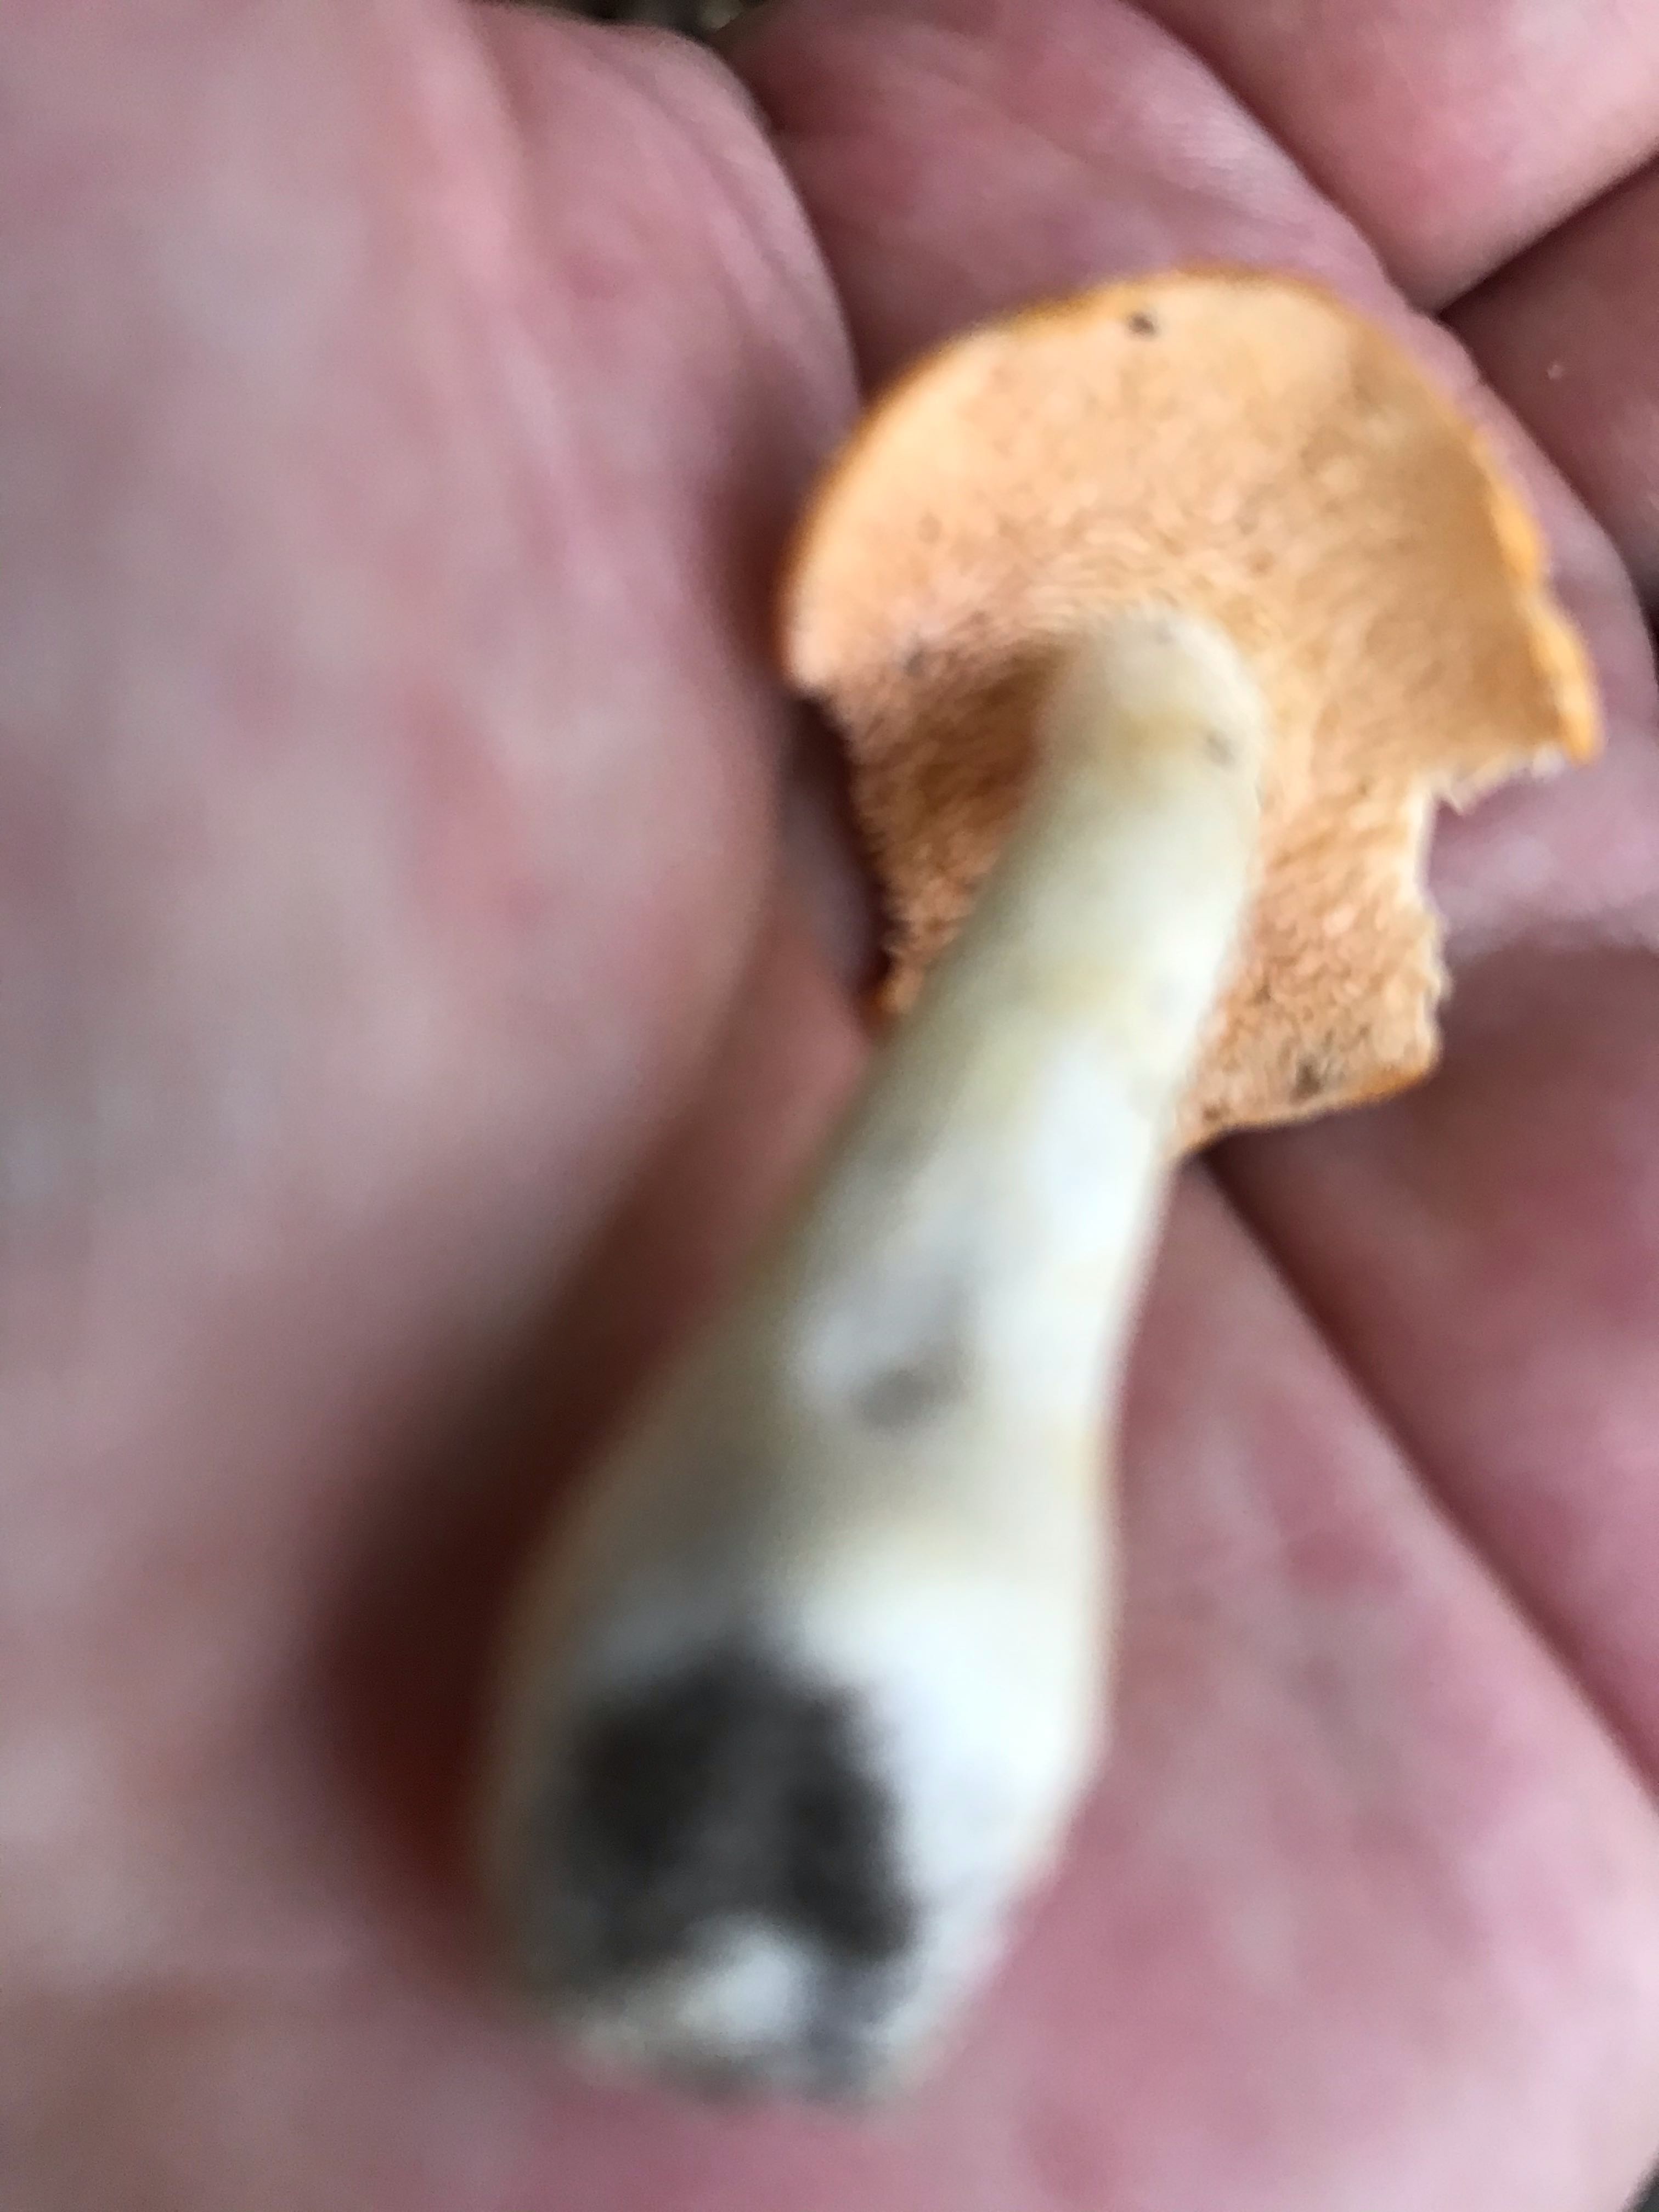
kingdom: Fungi
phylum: Basidiomycota
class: Agaricomycetes
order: Cantharellales
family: Hydnaceae
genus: Hydnum
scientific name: Hydnum
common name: pigsvamp
